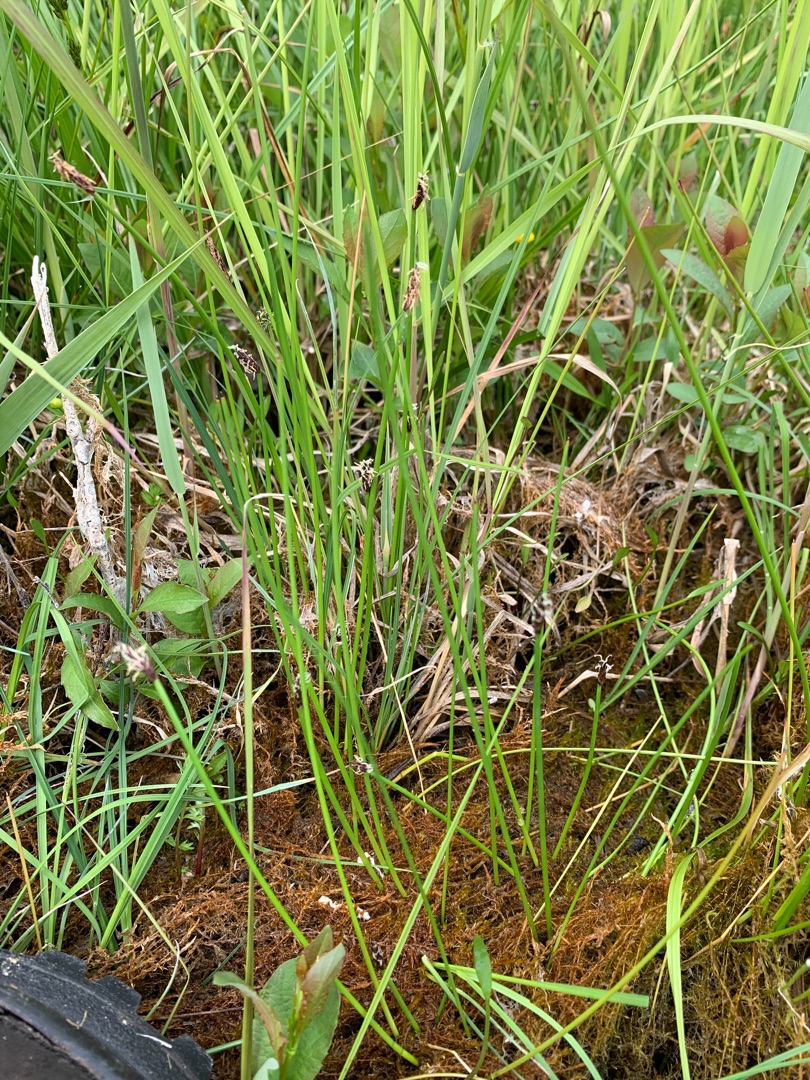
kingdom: Plantae
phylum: Tracheophyta
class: Liliopsida
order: Poales
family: Cyperaceae
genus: Eleocharis
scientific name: Eleocharis palustris
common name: Almindelig sumpstrå
